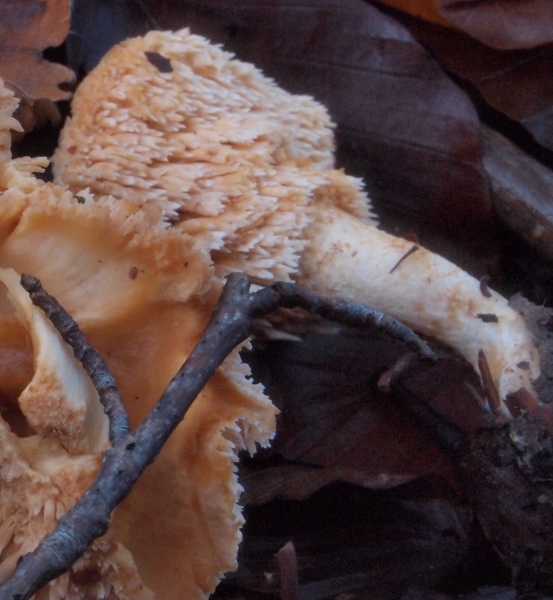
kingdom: Fungi
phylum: Basidiomycota
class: Agaricomycetes
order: Cantharellales
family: Hydnaceae
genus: Hydnum
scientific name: Hydnum umbilicatum
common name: navle-pigsvamp
